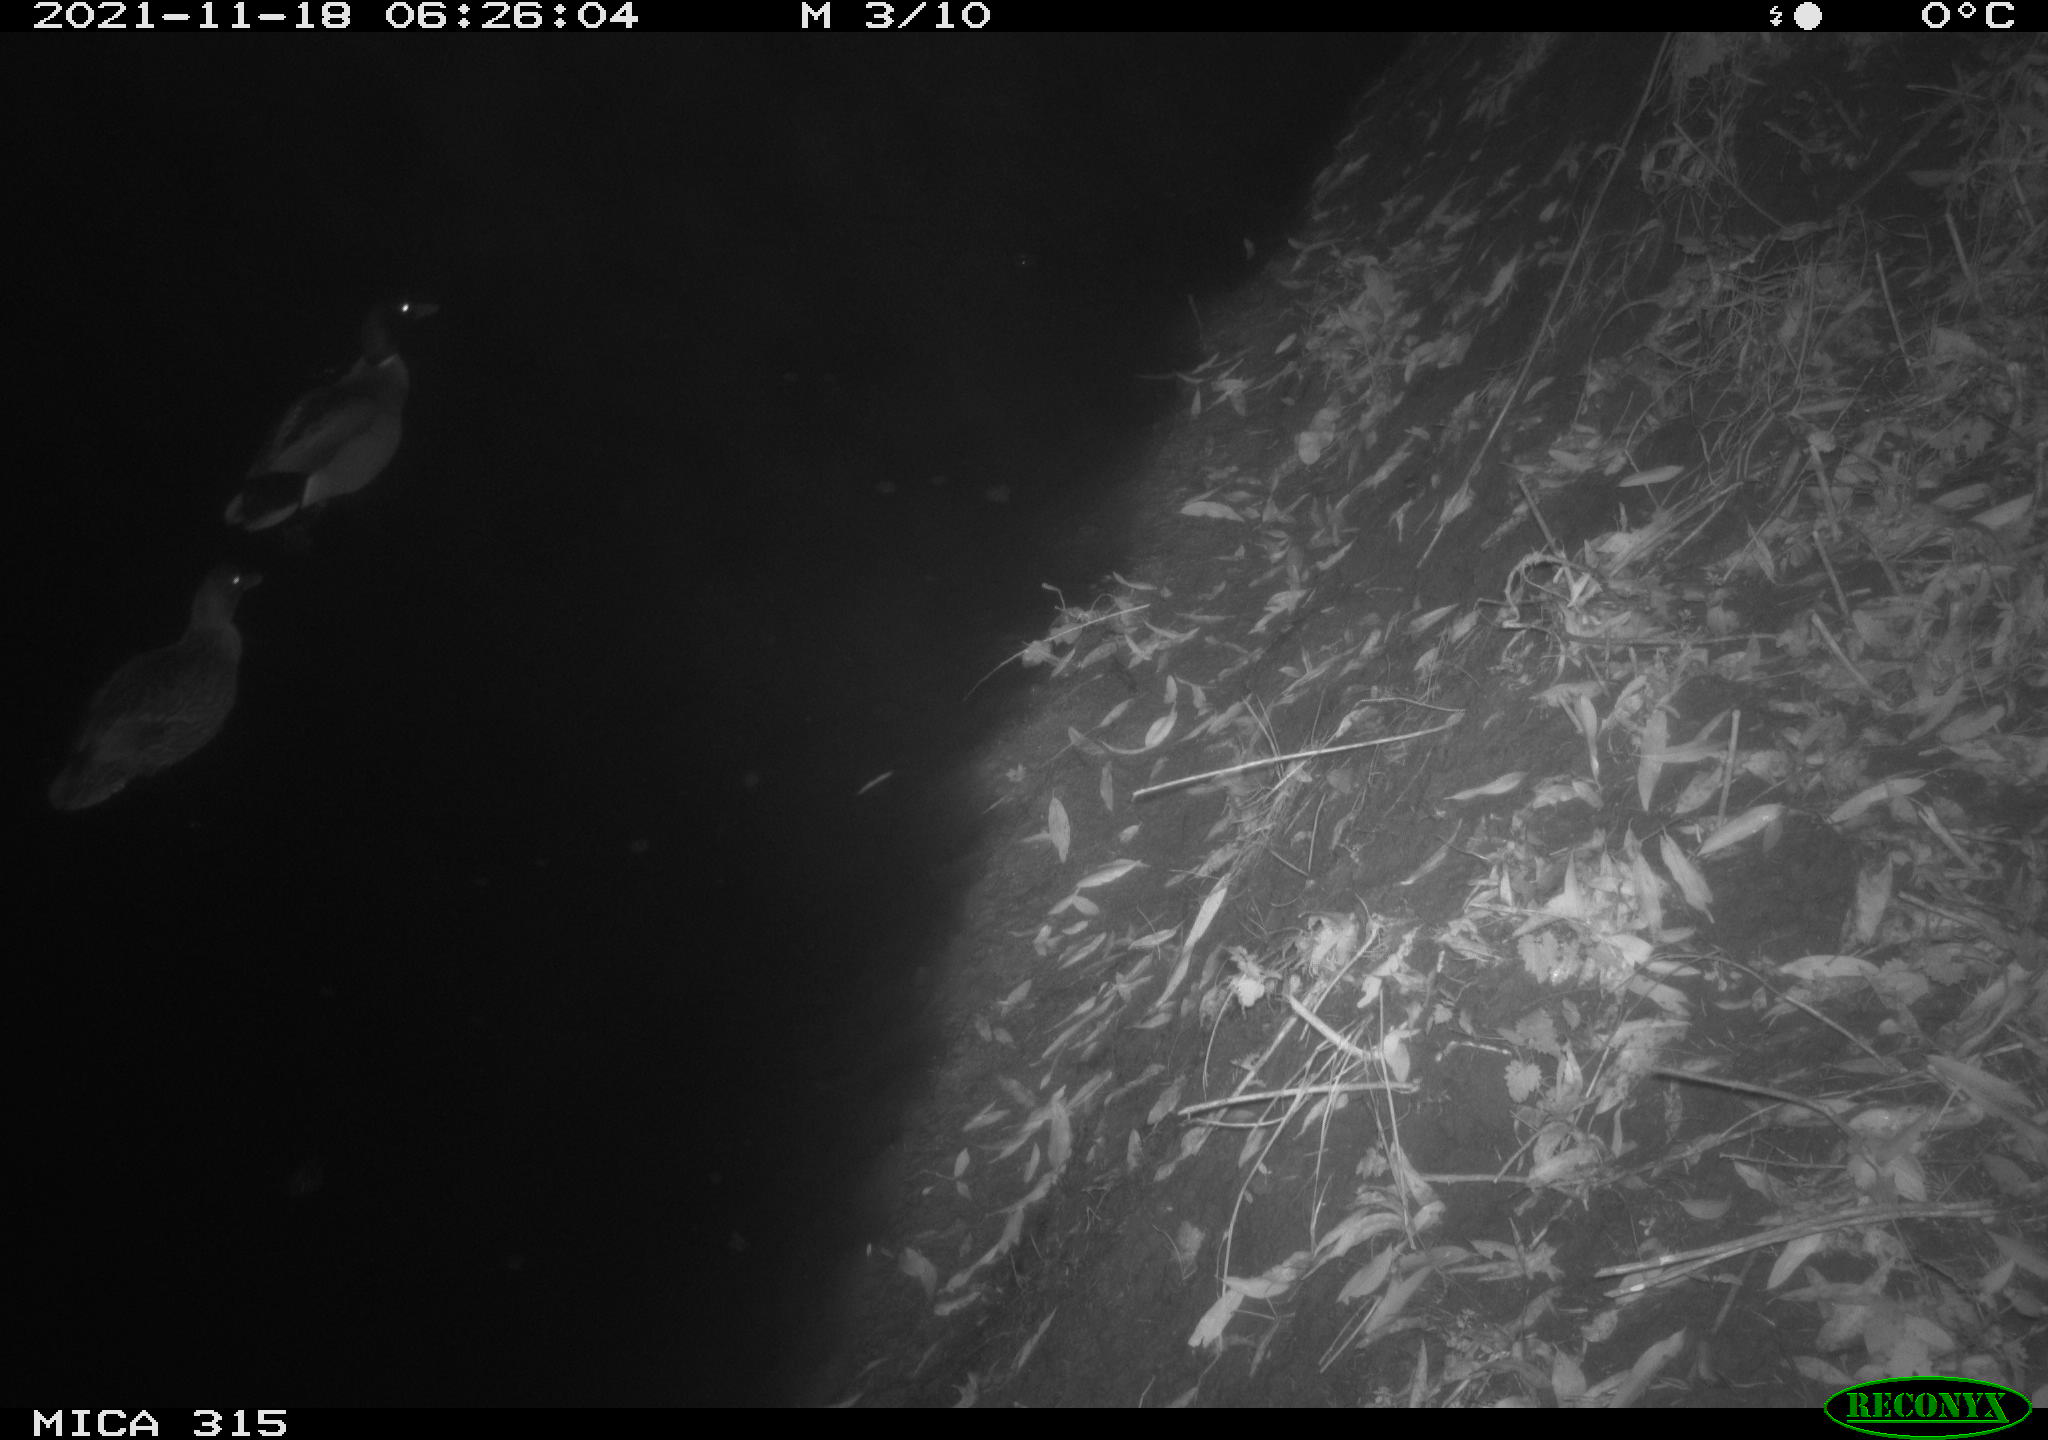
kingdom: Animalia
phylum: Chordata
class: Aves
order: Anseriformes
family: Anatidae
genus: Anas
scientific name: Anas platyrhynchos
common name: Mallard
